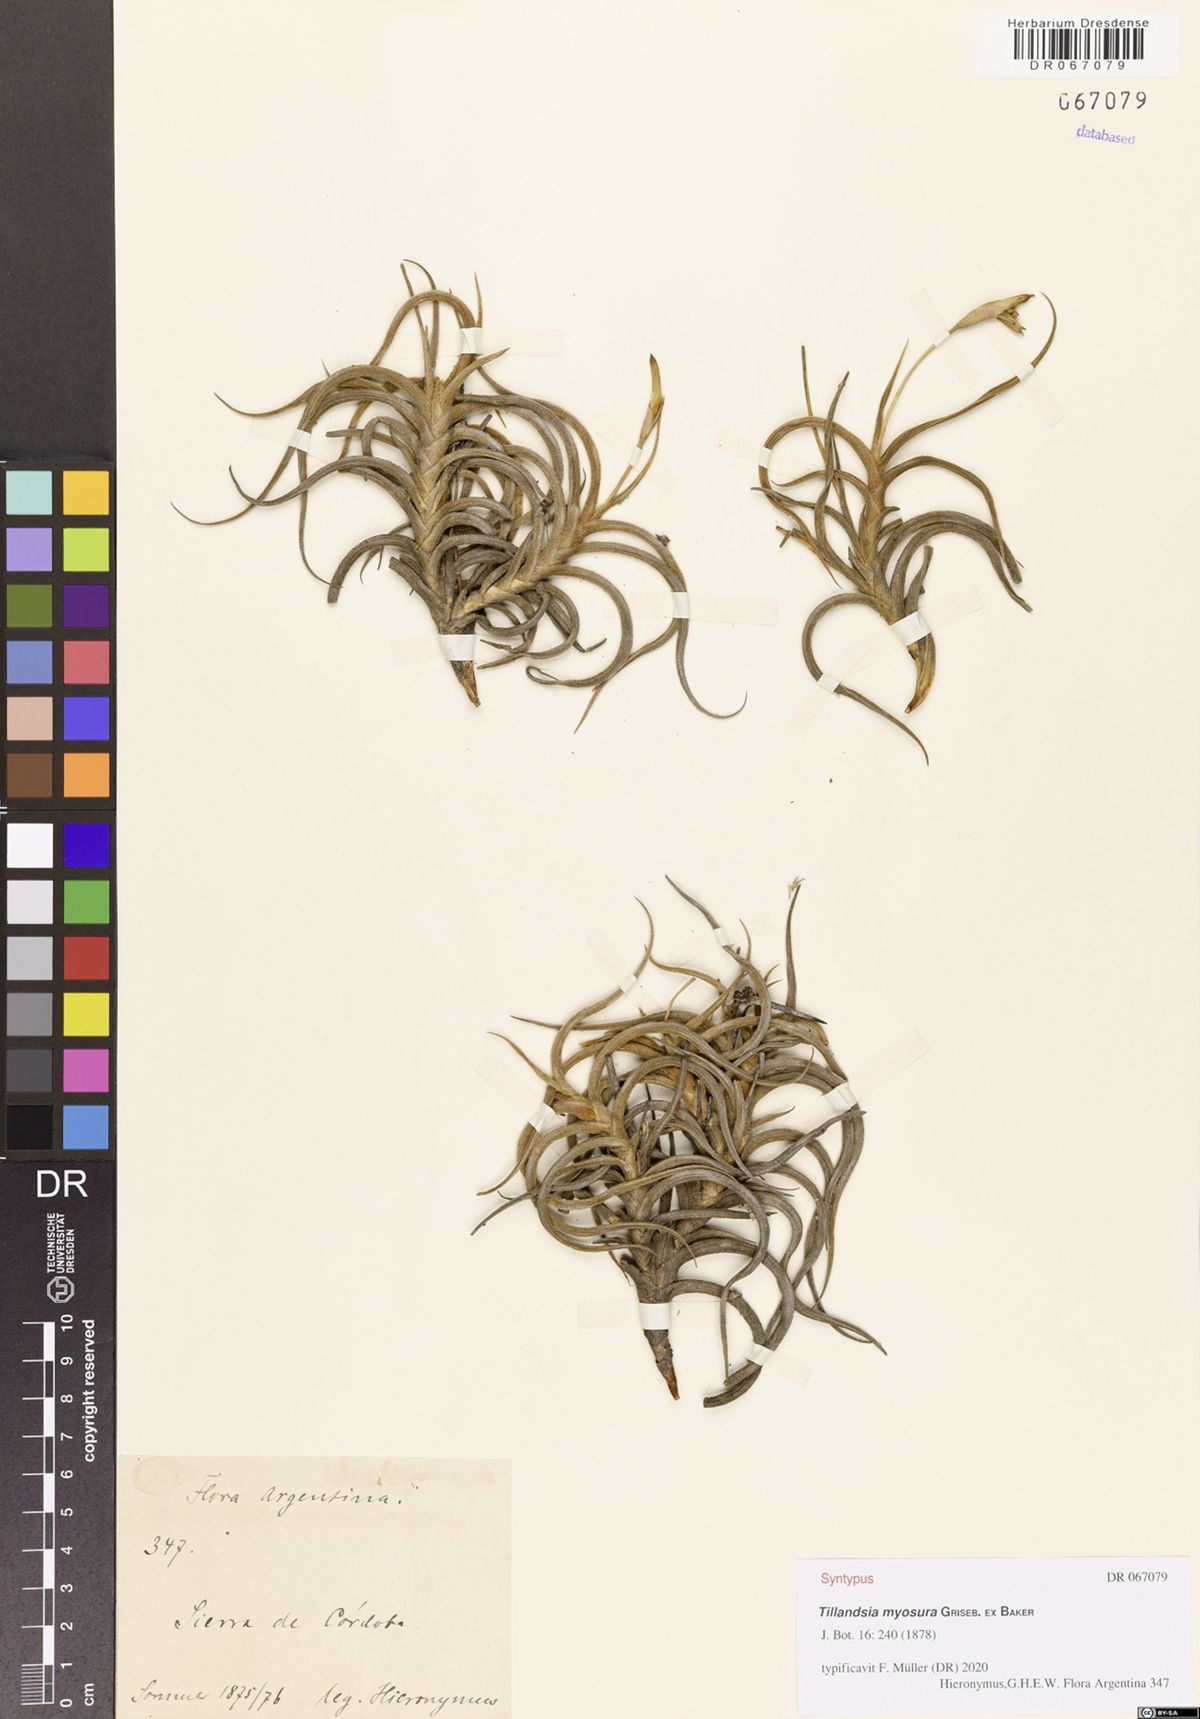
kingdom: Plantae
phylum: Tracheophyta
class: Liliopsida
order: Poales
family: Bromeliaceae
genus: Tillandsia
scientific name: Tillandsia myosura
